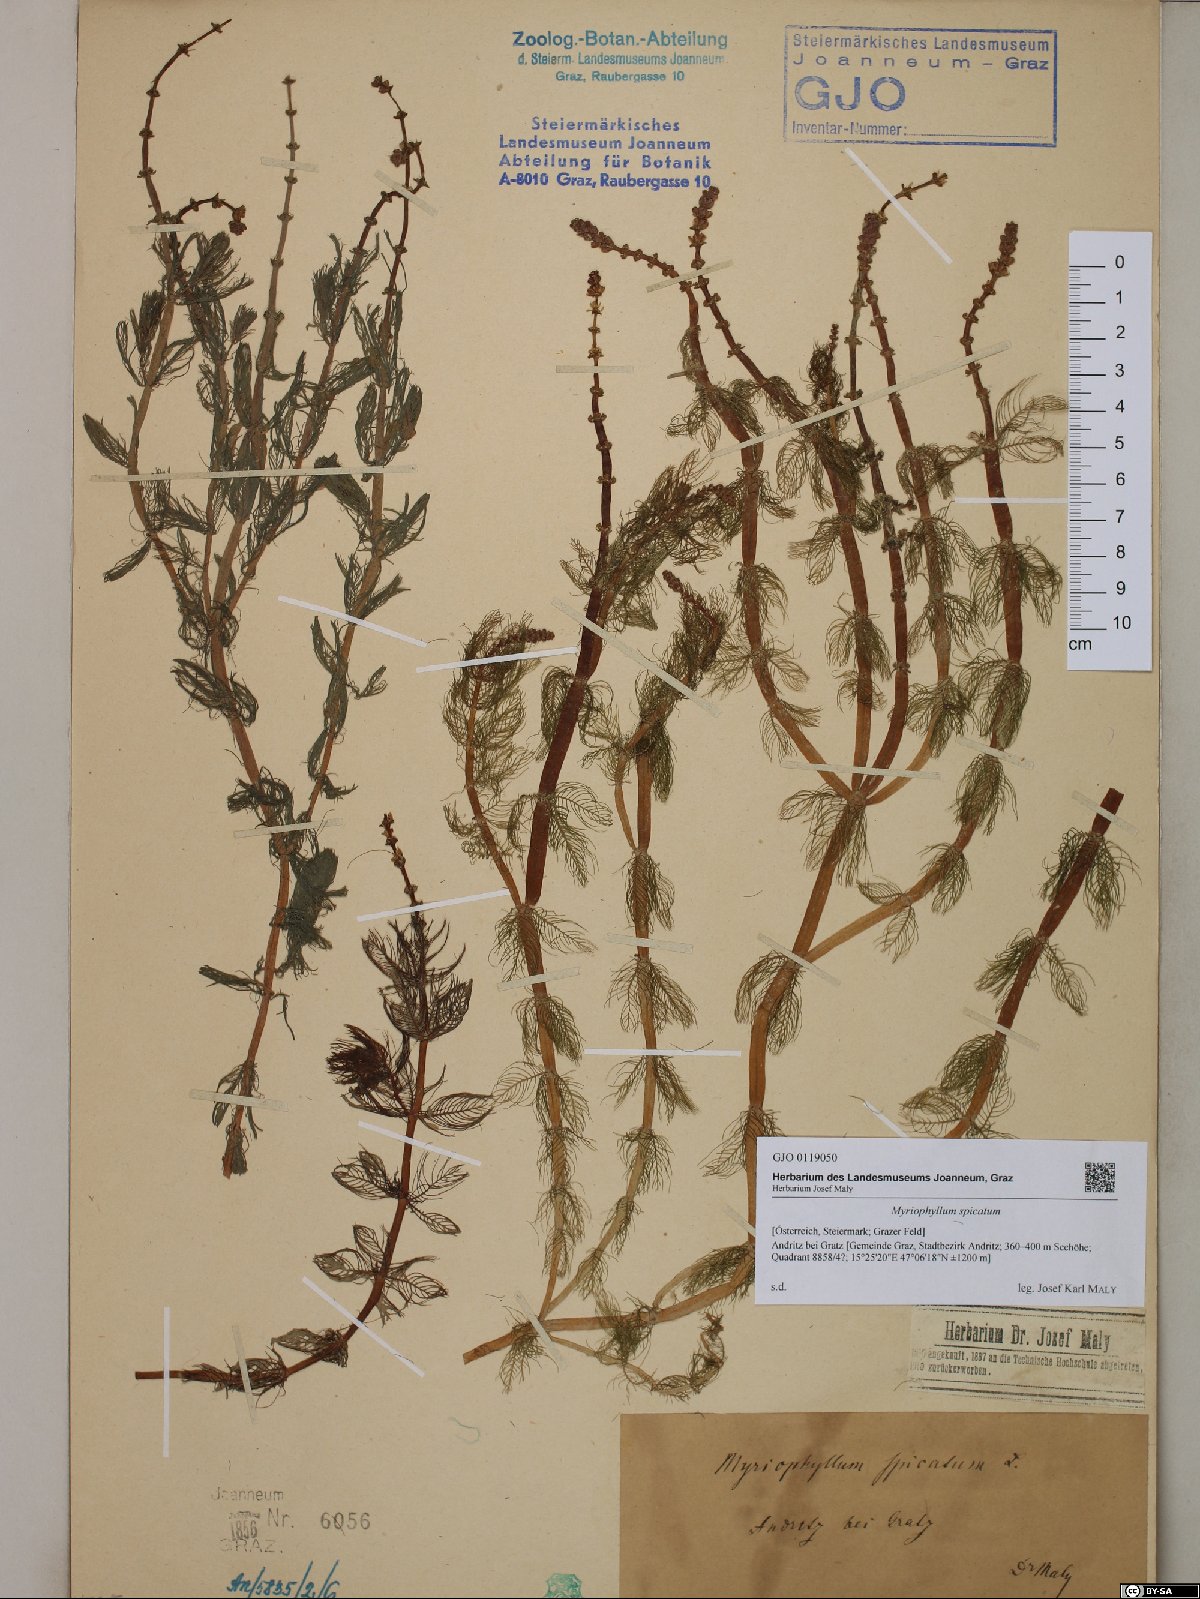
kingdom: Plantae
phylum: Tracheophyta
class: Magnoliopsida
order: Saxifragales
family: Haloragaceae
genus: Myriophyllum
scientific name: Myriophyllum spicatum
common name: Spiked water-milfoil
